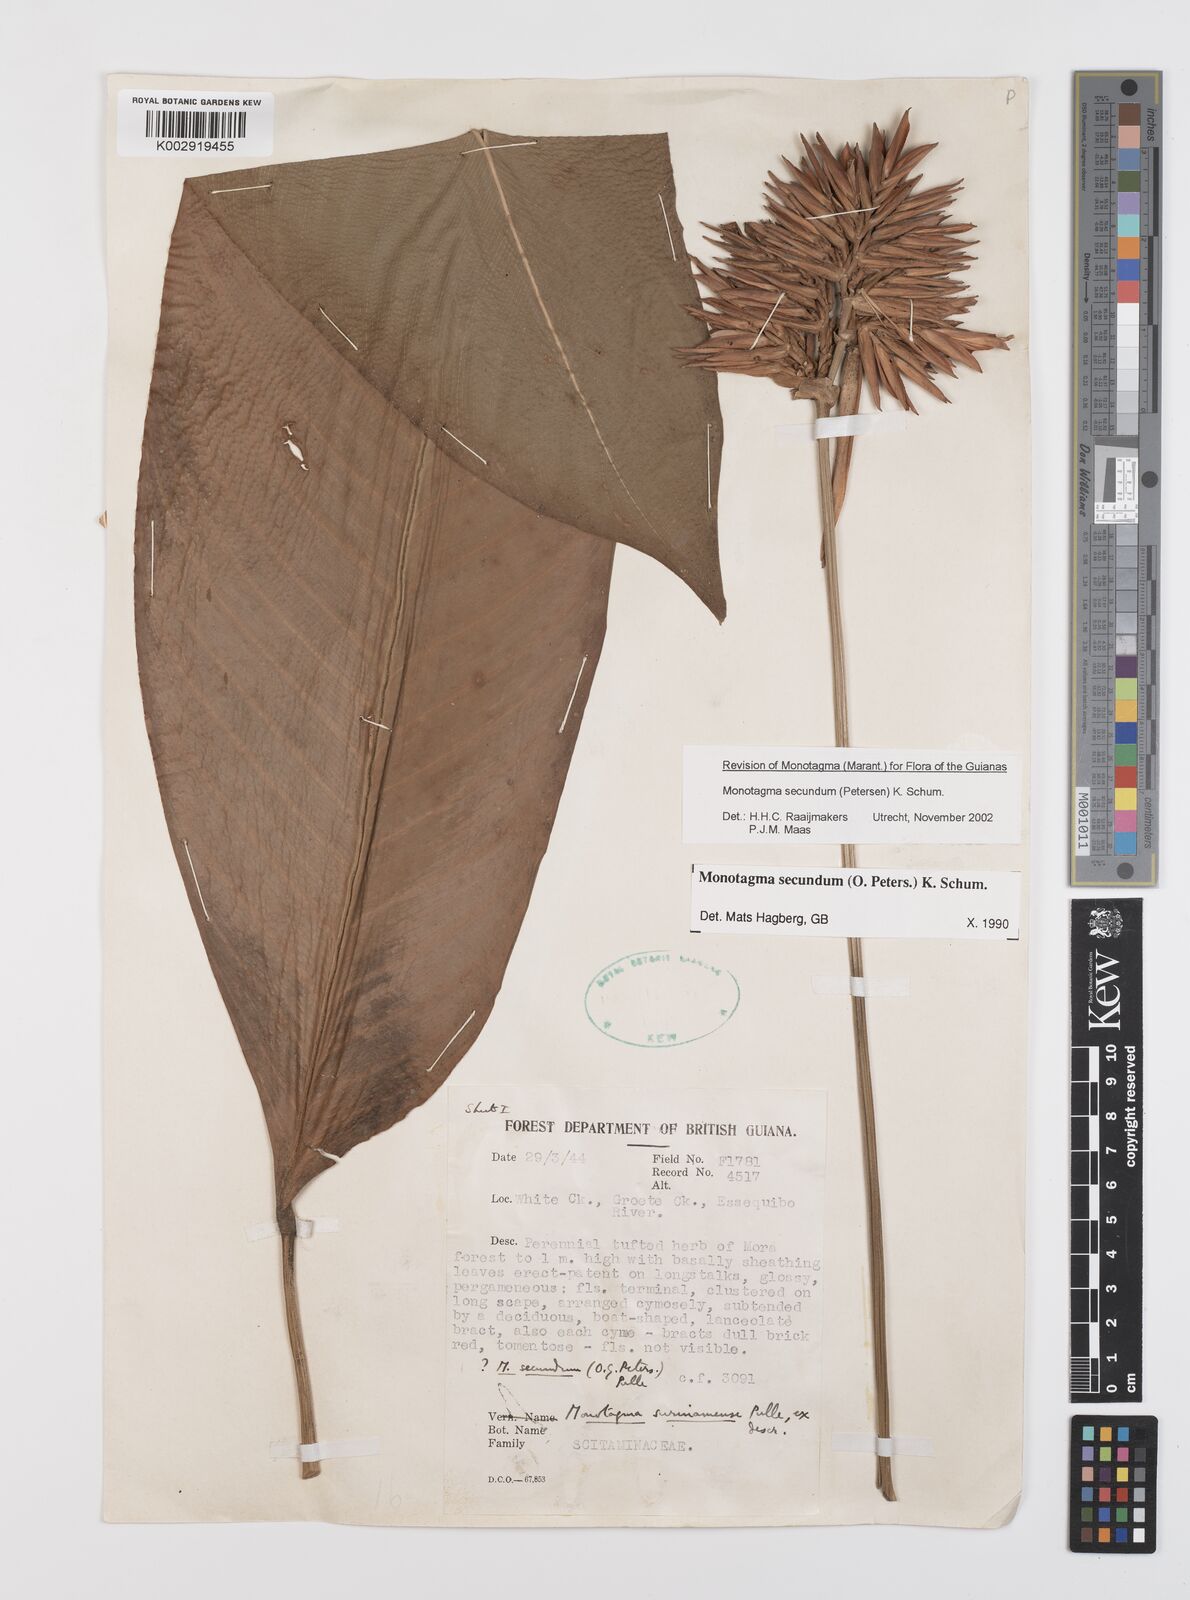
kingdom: Plantae
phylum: Tracheophyta
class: Liliopsida
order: Zingiberales
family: Marantaceae
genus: Monotagma
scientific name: Monotagma secundum
